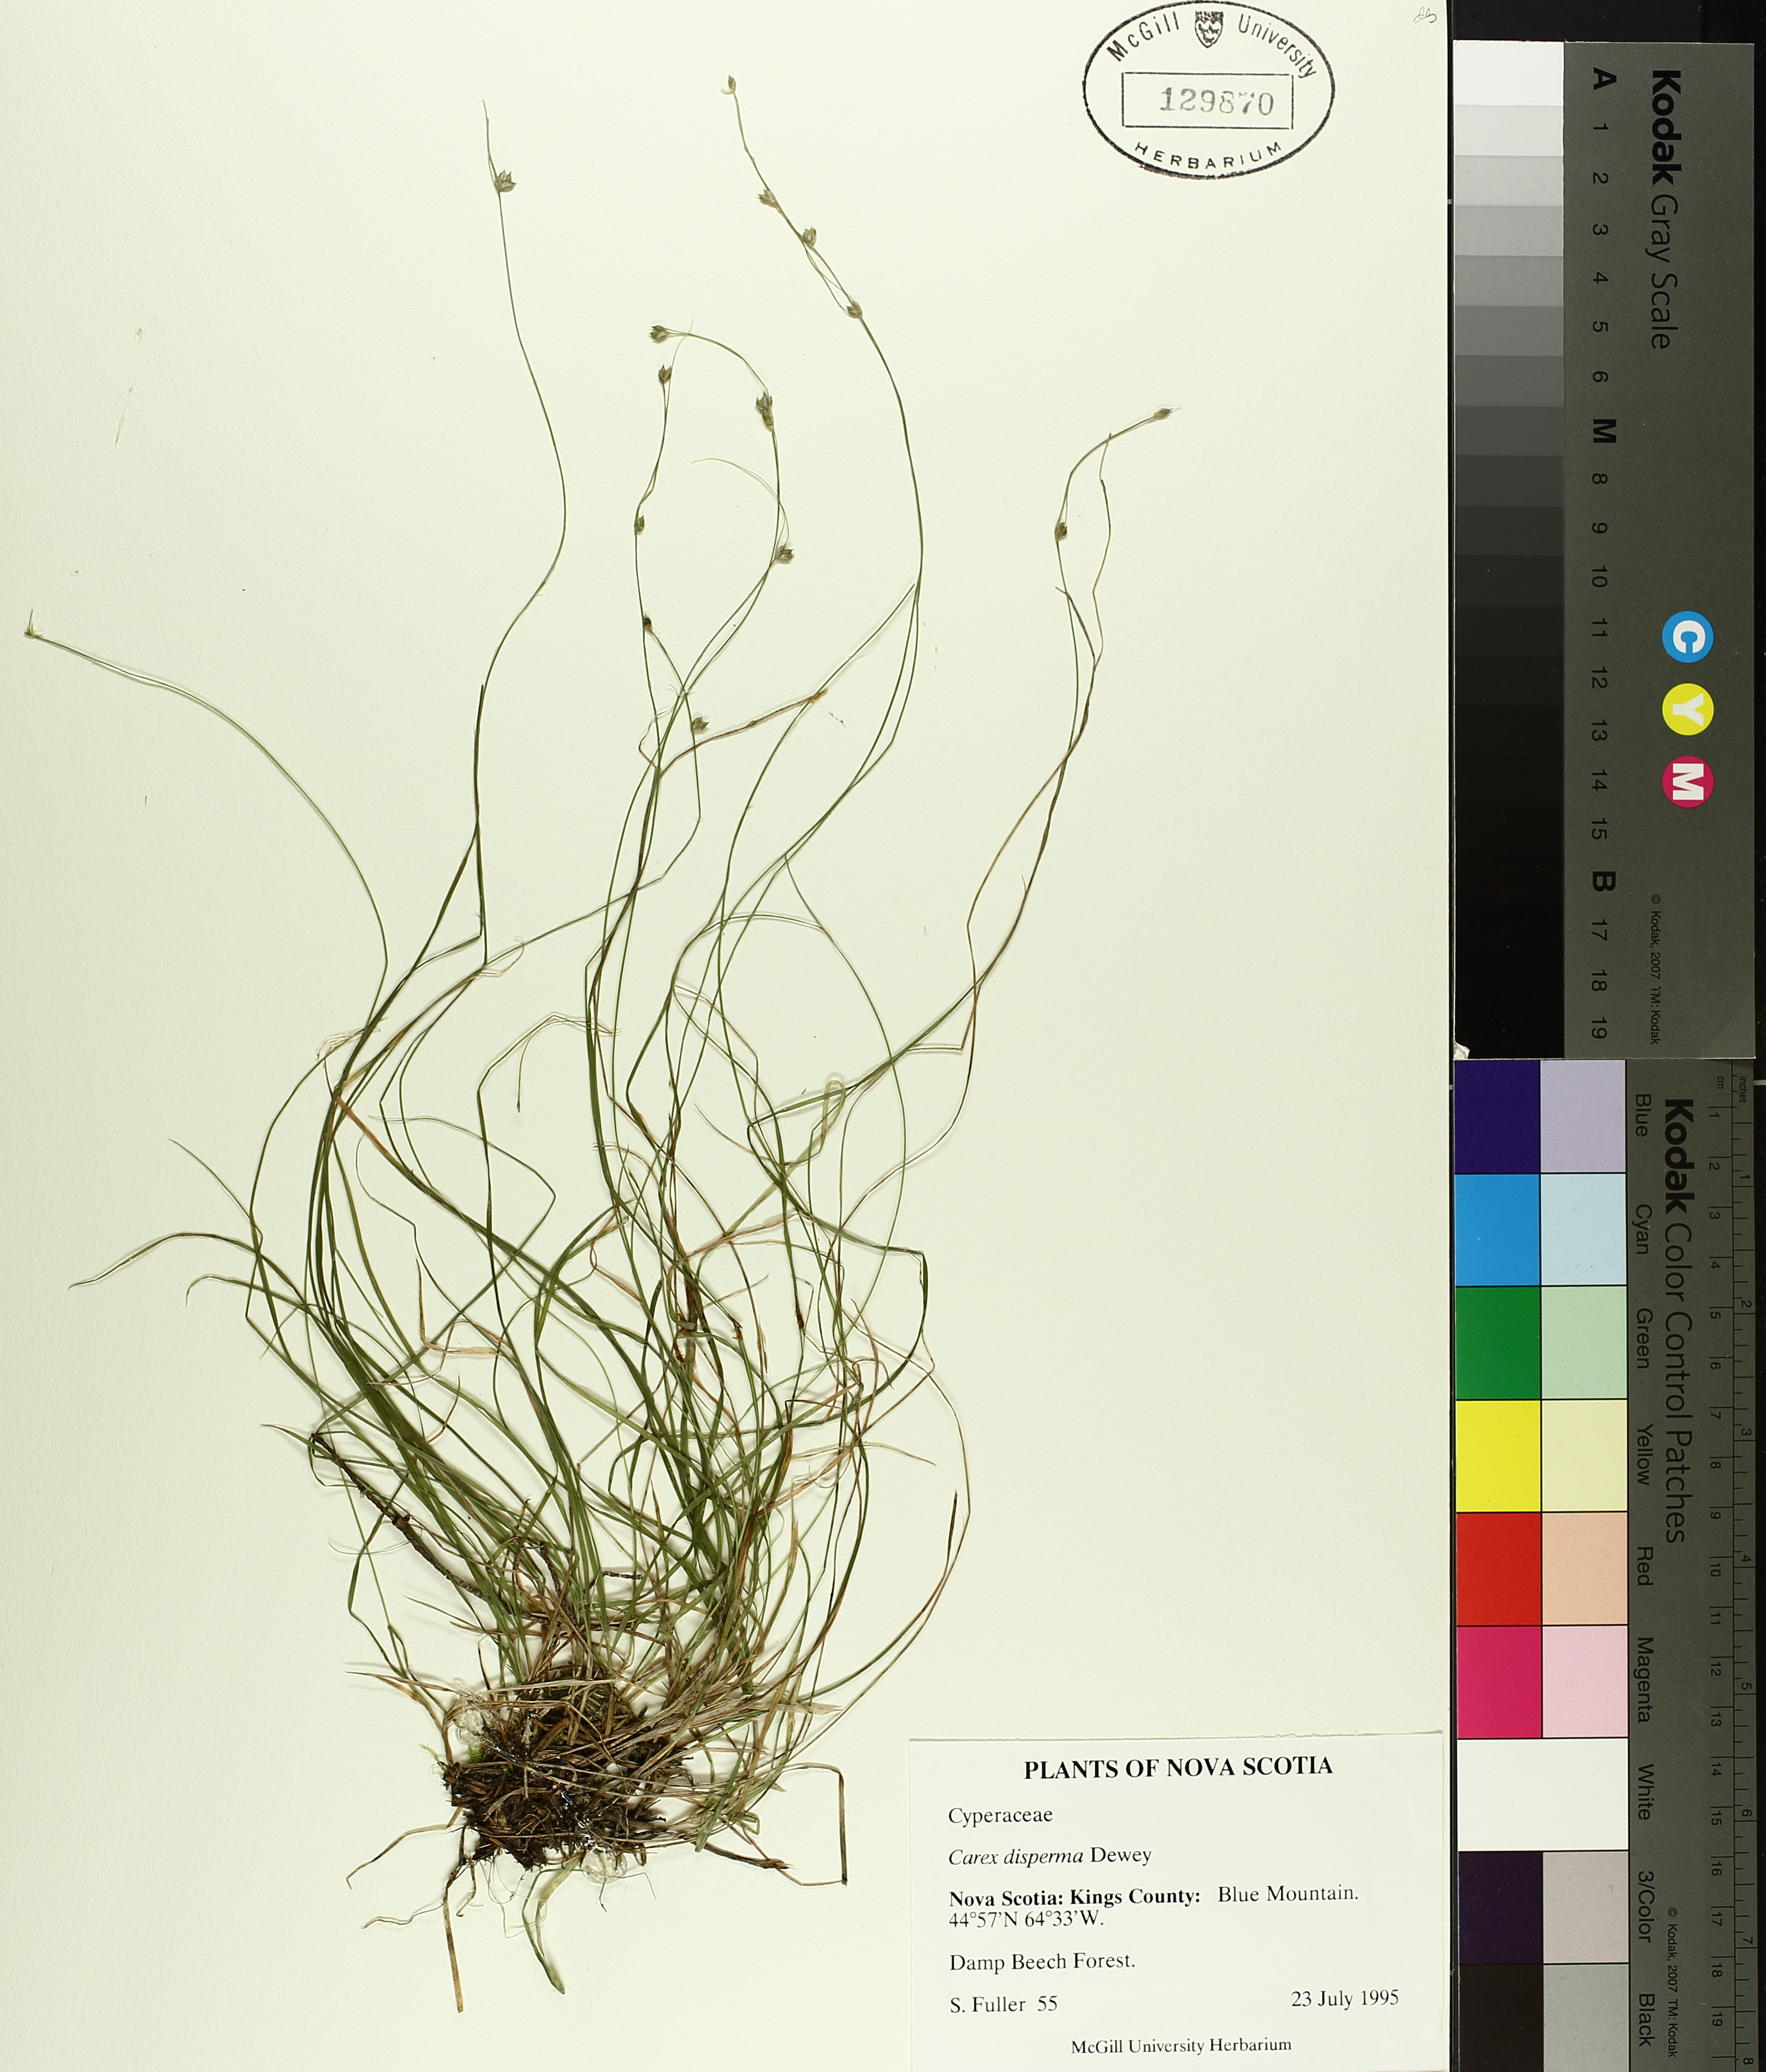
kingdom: Plantae
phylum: Tracheophyta
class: Liliopsida
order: Poales
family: Cyperaceae
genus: Carex
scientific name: Carex disperma
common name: Short-leaved sedge
